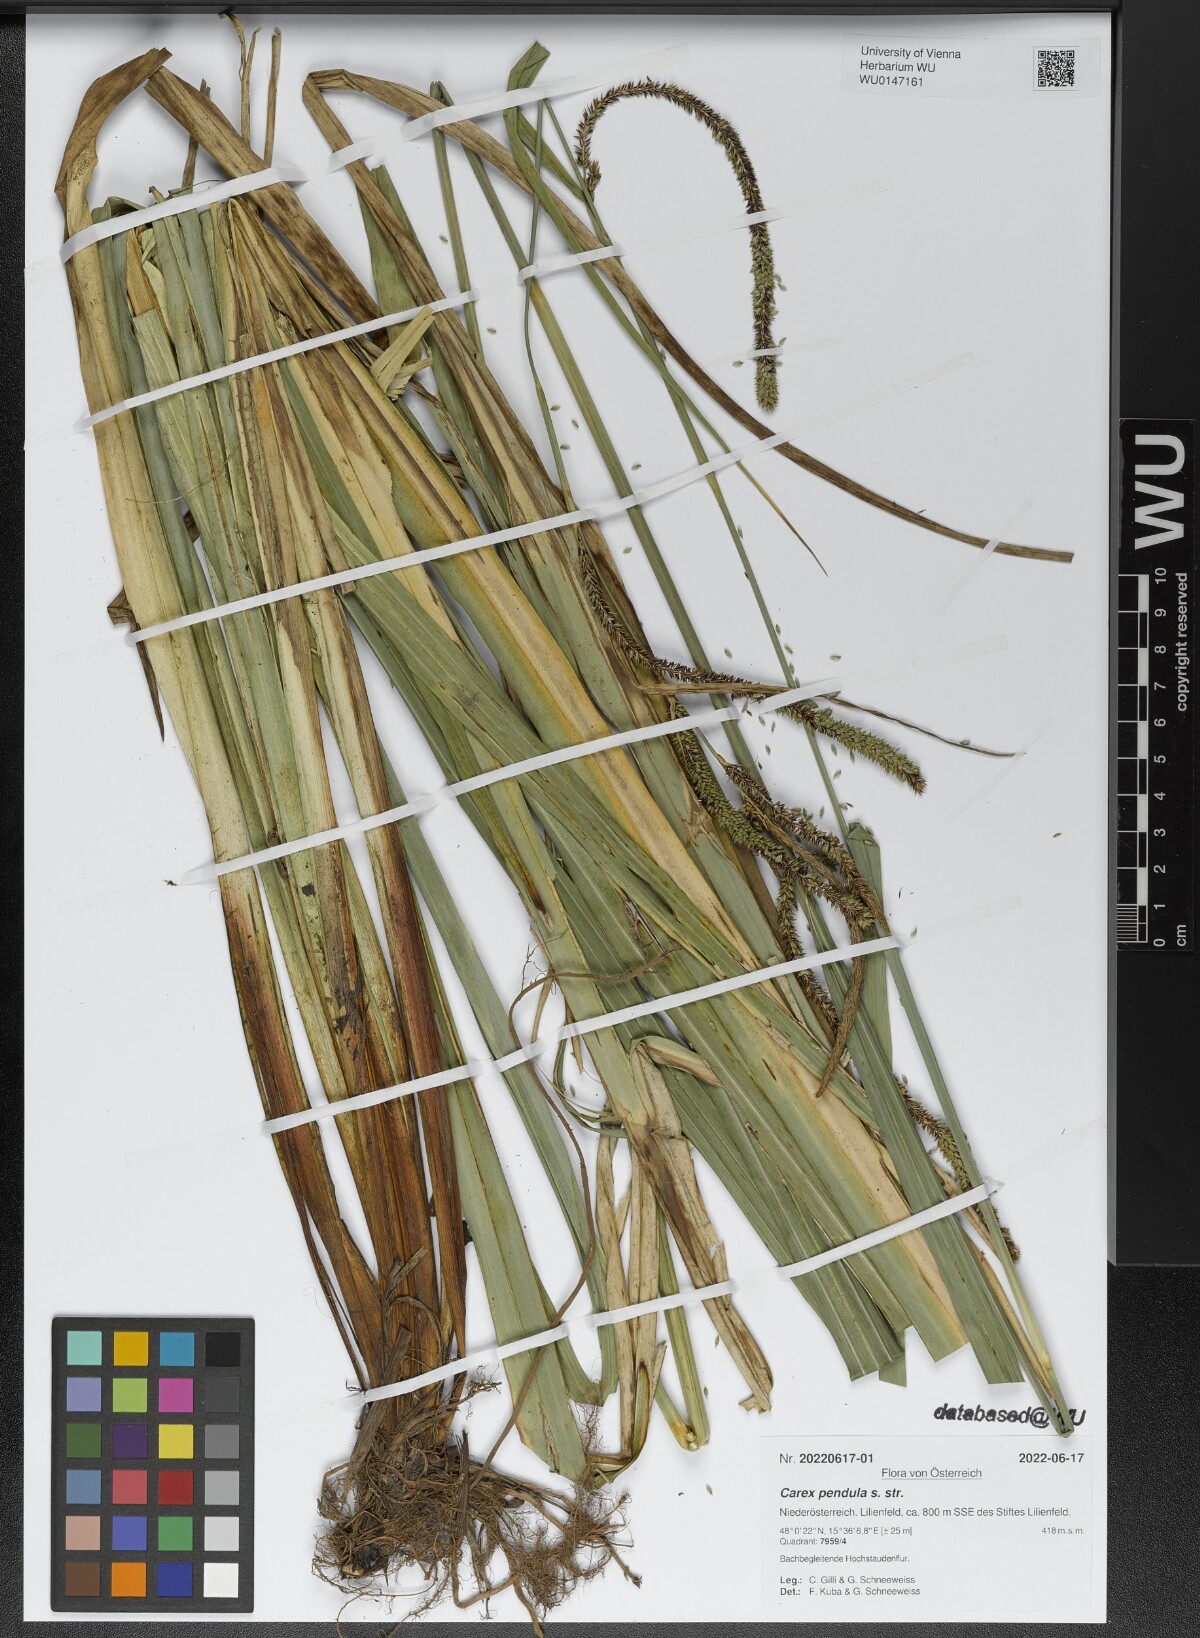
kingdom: Plantae
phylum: Tracheophyta
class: Liliopsida
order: Poales
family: Cyperaceae
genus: Carex
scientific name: Carex pendula
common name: Pendulous sedge
